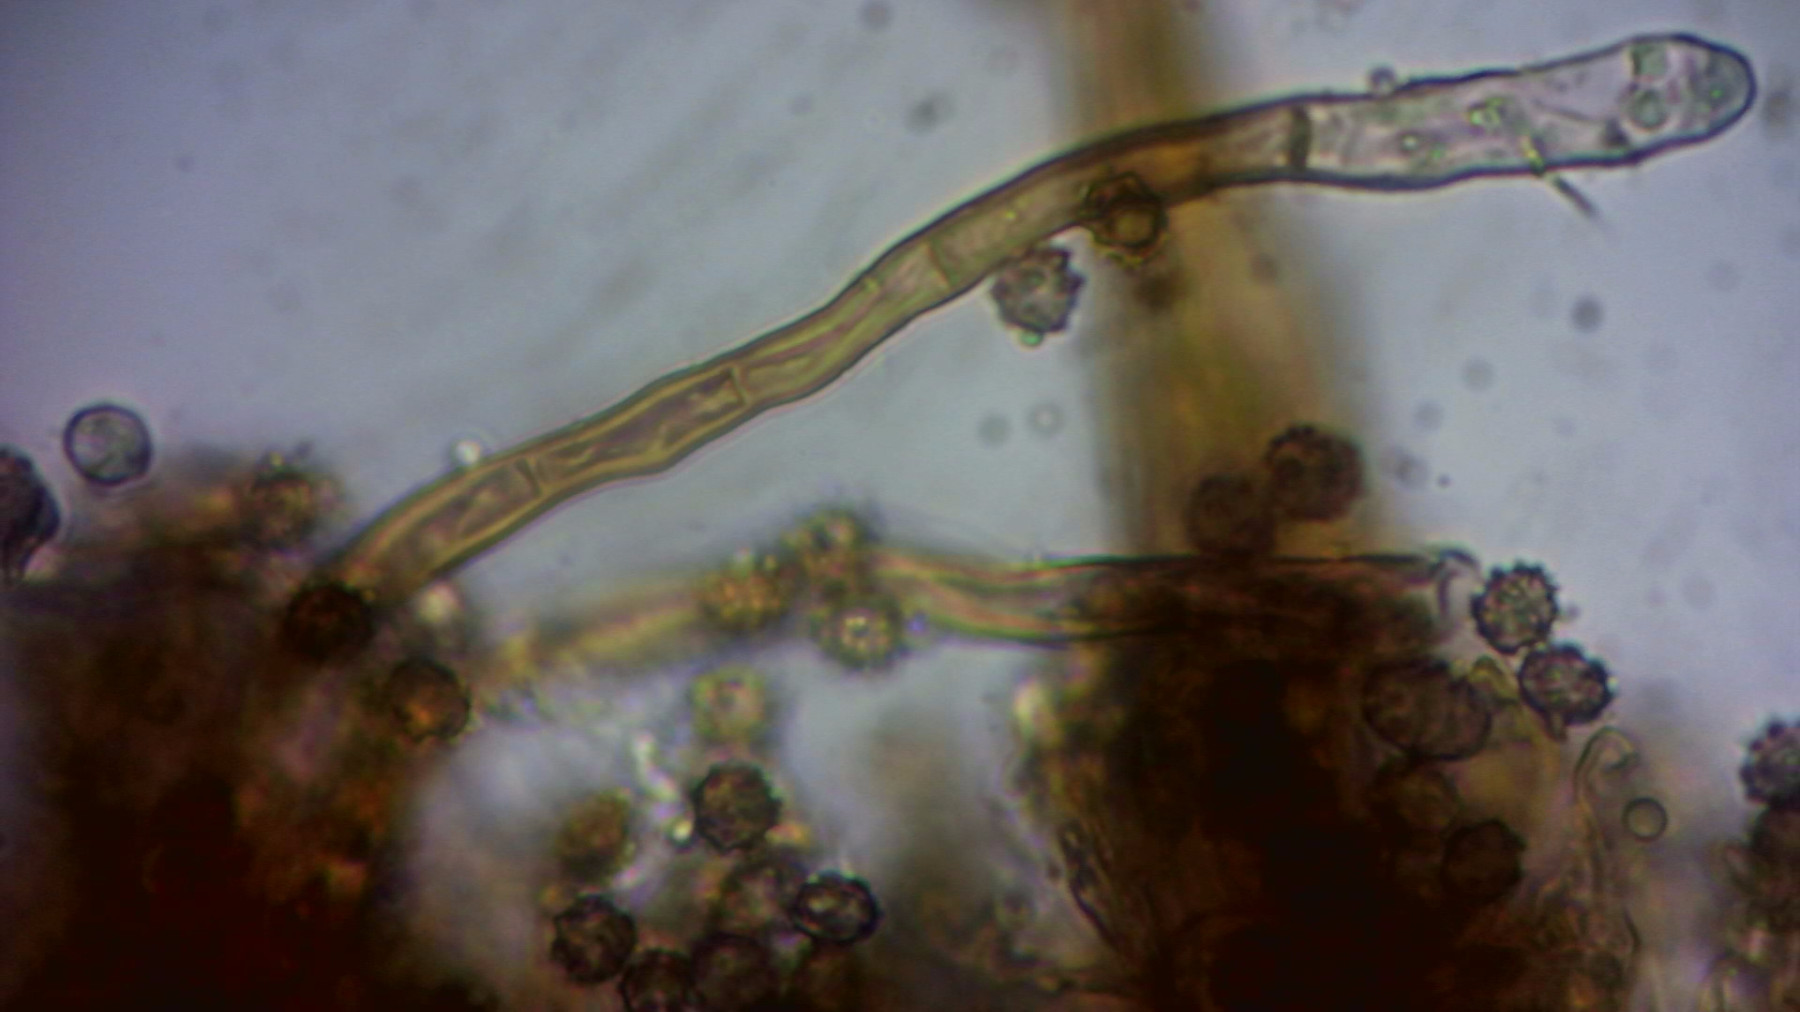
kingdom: Fungi
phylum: Basidiomycota
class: Agaricomycetes
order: Thelephorales
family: Thelephoraceae
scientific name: Thelephoraceae
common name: frynsesvampfamilien
